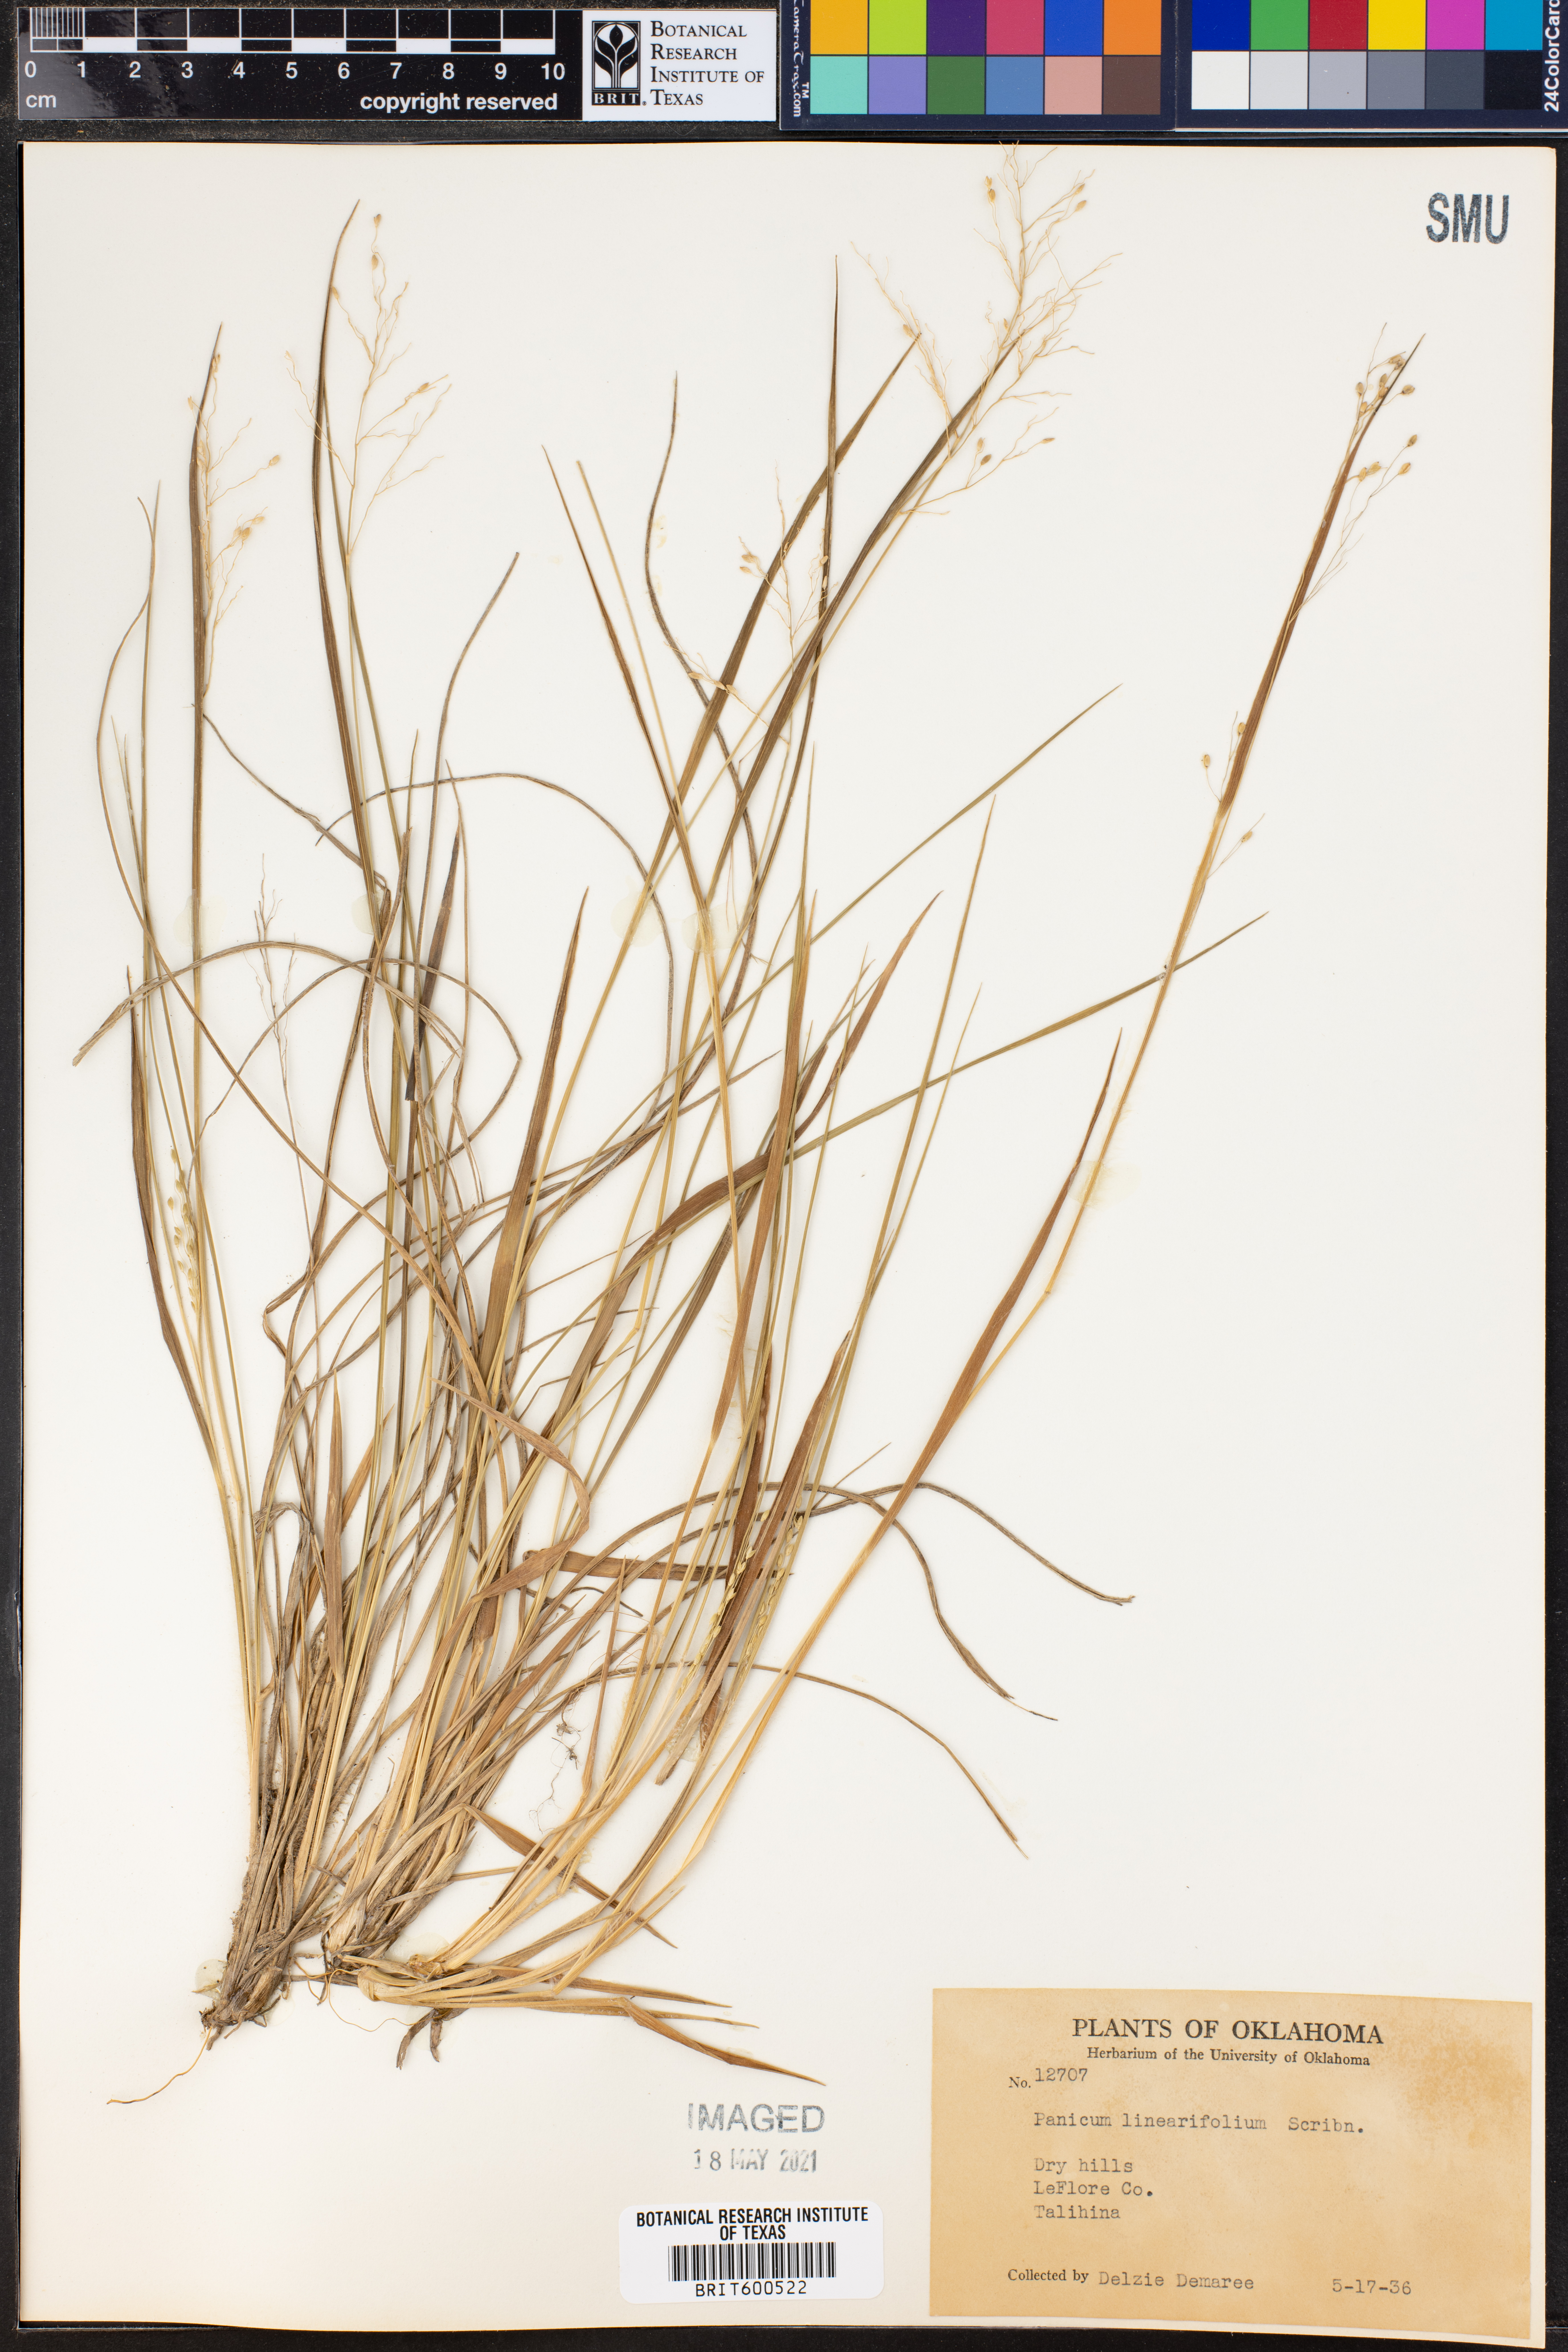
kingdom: Plantae
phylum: Tracheophyta
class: Liliopsida
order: Poales
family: Poaceae
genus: Dichanthelium
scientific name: Dichanthelium linearifolium
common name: Linear-leaved panicgrass
